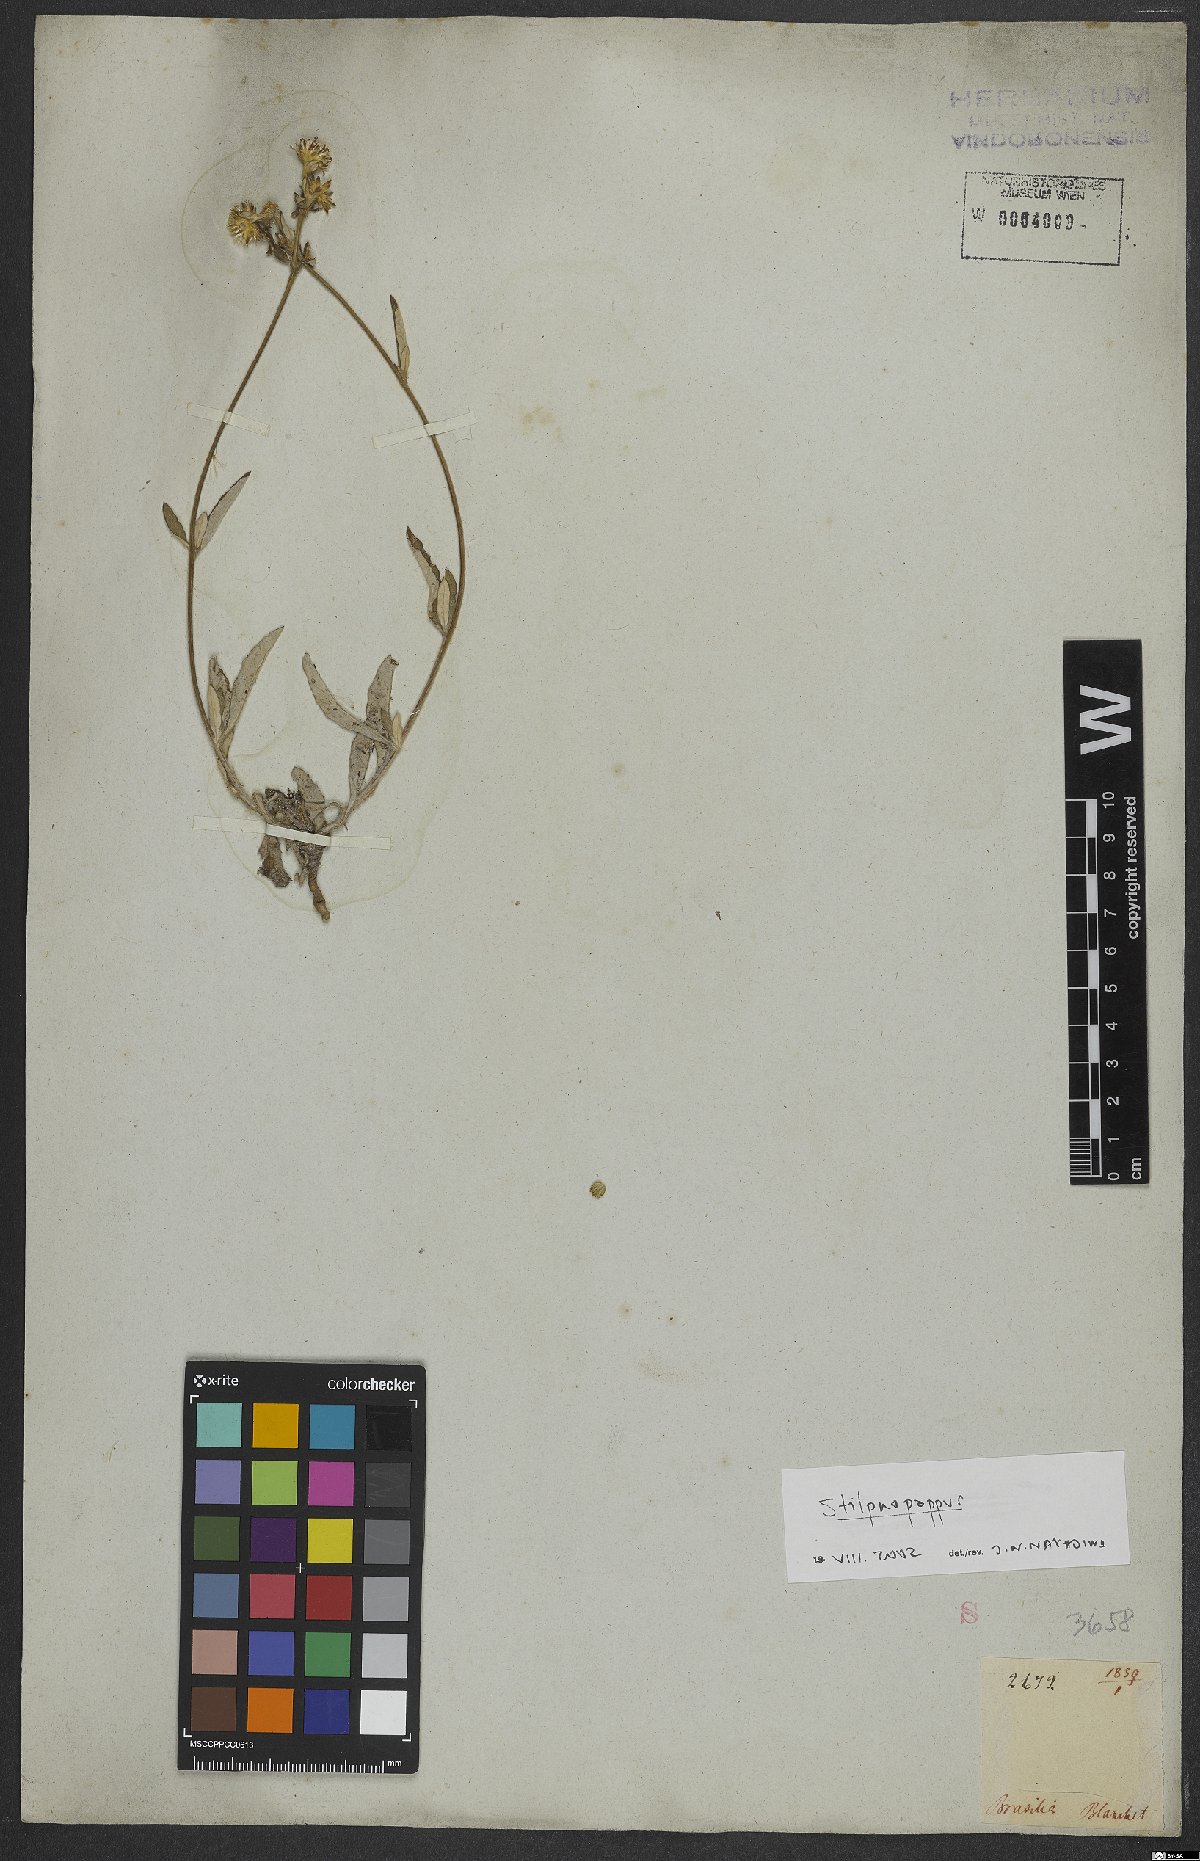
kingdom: Plantae
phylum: Tracheophyta
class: Magnoliopsida
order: Asterales
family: Asteraceae
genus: Stilpnopappus
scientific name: Stilpnopappus
